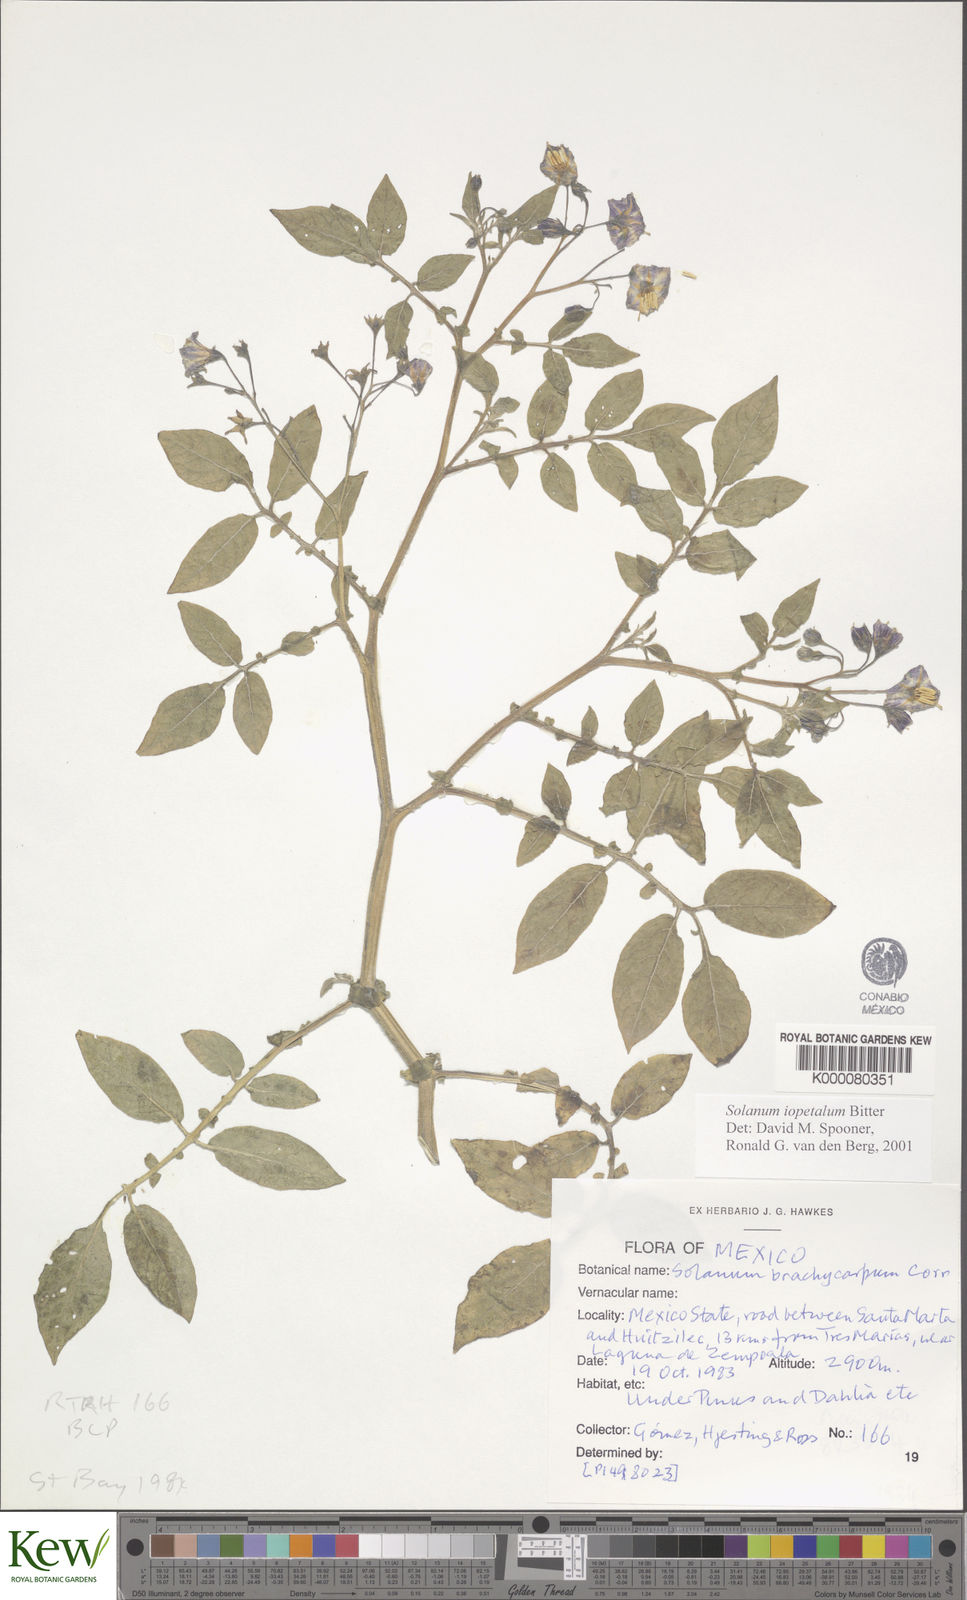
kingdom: Plantae
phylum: Tracheophyta
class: Magnoliopsida
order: Solanales
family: Solanaceae
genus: Solanum
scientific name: Solanum iopetalum
